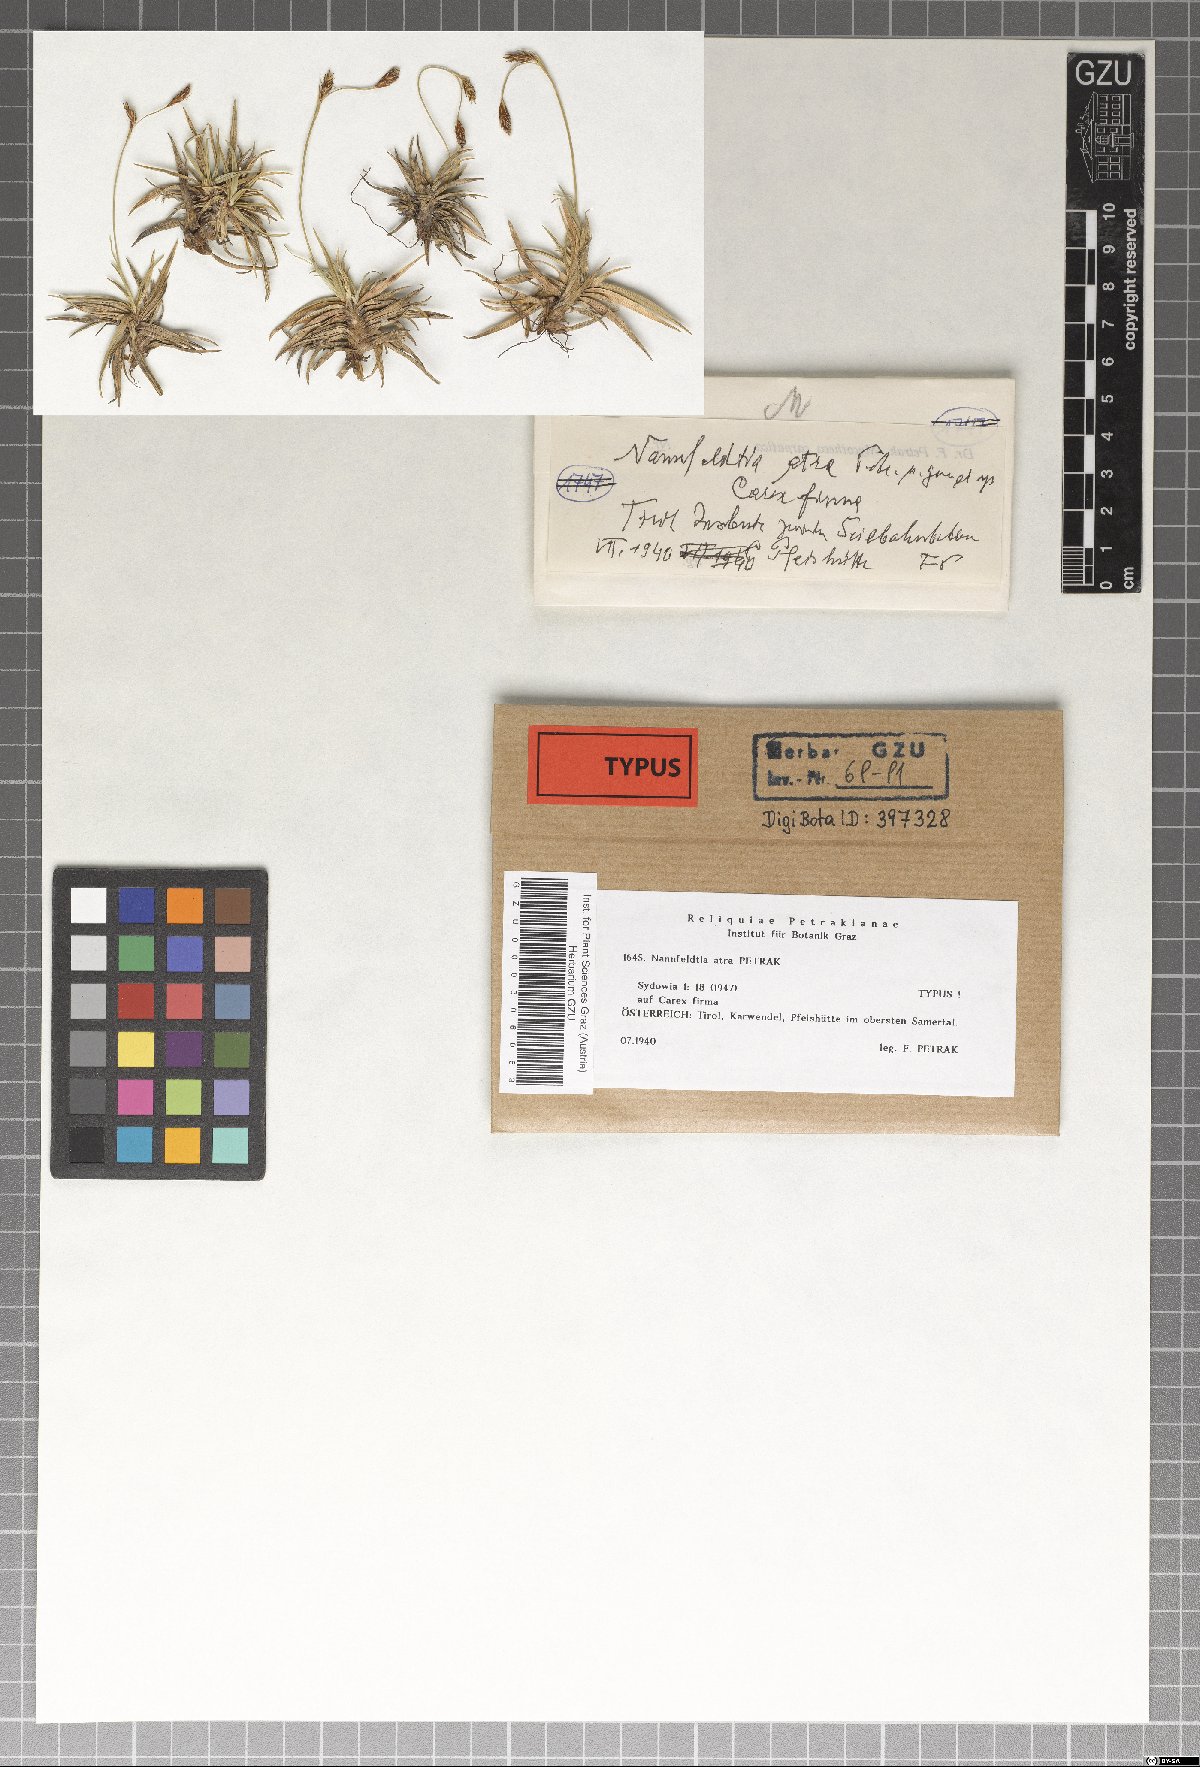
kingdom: Fungi
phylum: Ascomycota
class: Dothideomycetes
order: Microthyriales
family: Leptopeltidaceae
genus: Nannfeldtia
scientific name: Nannfeldtia atra
